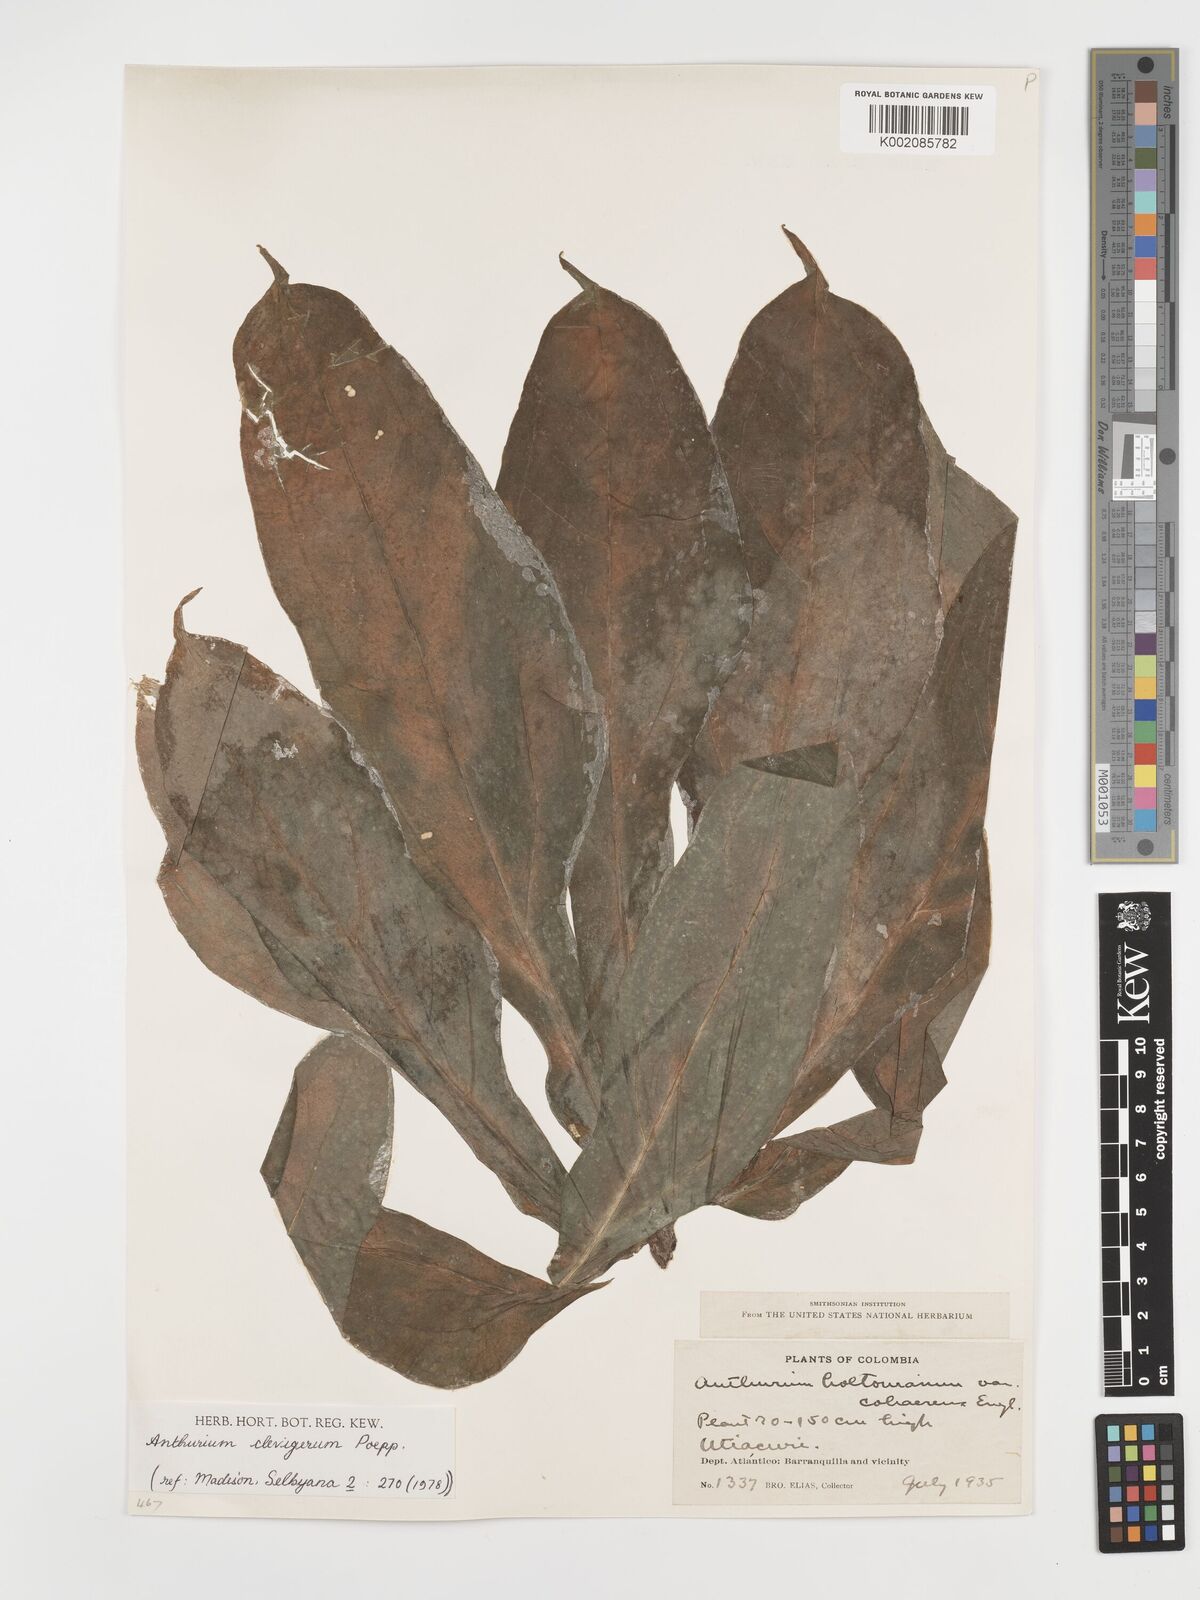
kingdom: Plantae
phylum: Tracheophyta
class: Liliopsida
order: Alismatales
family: Araceae
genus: Anthurium
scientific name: Anthurium clavigerum
